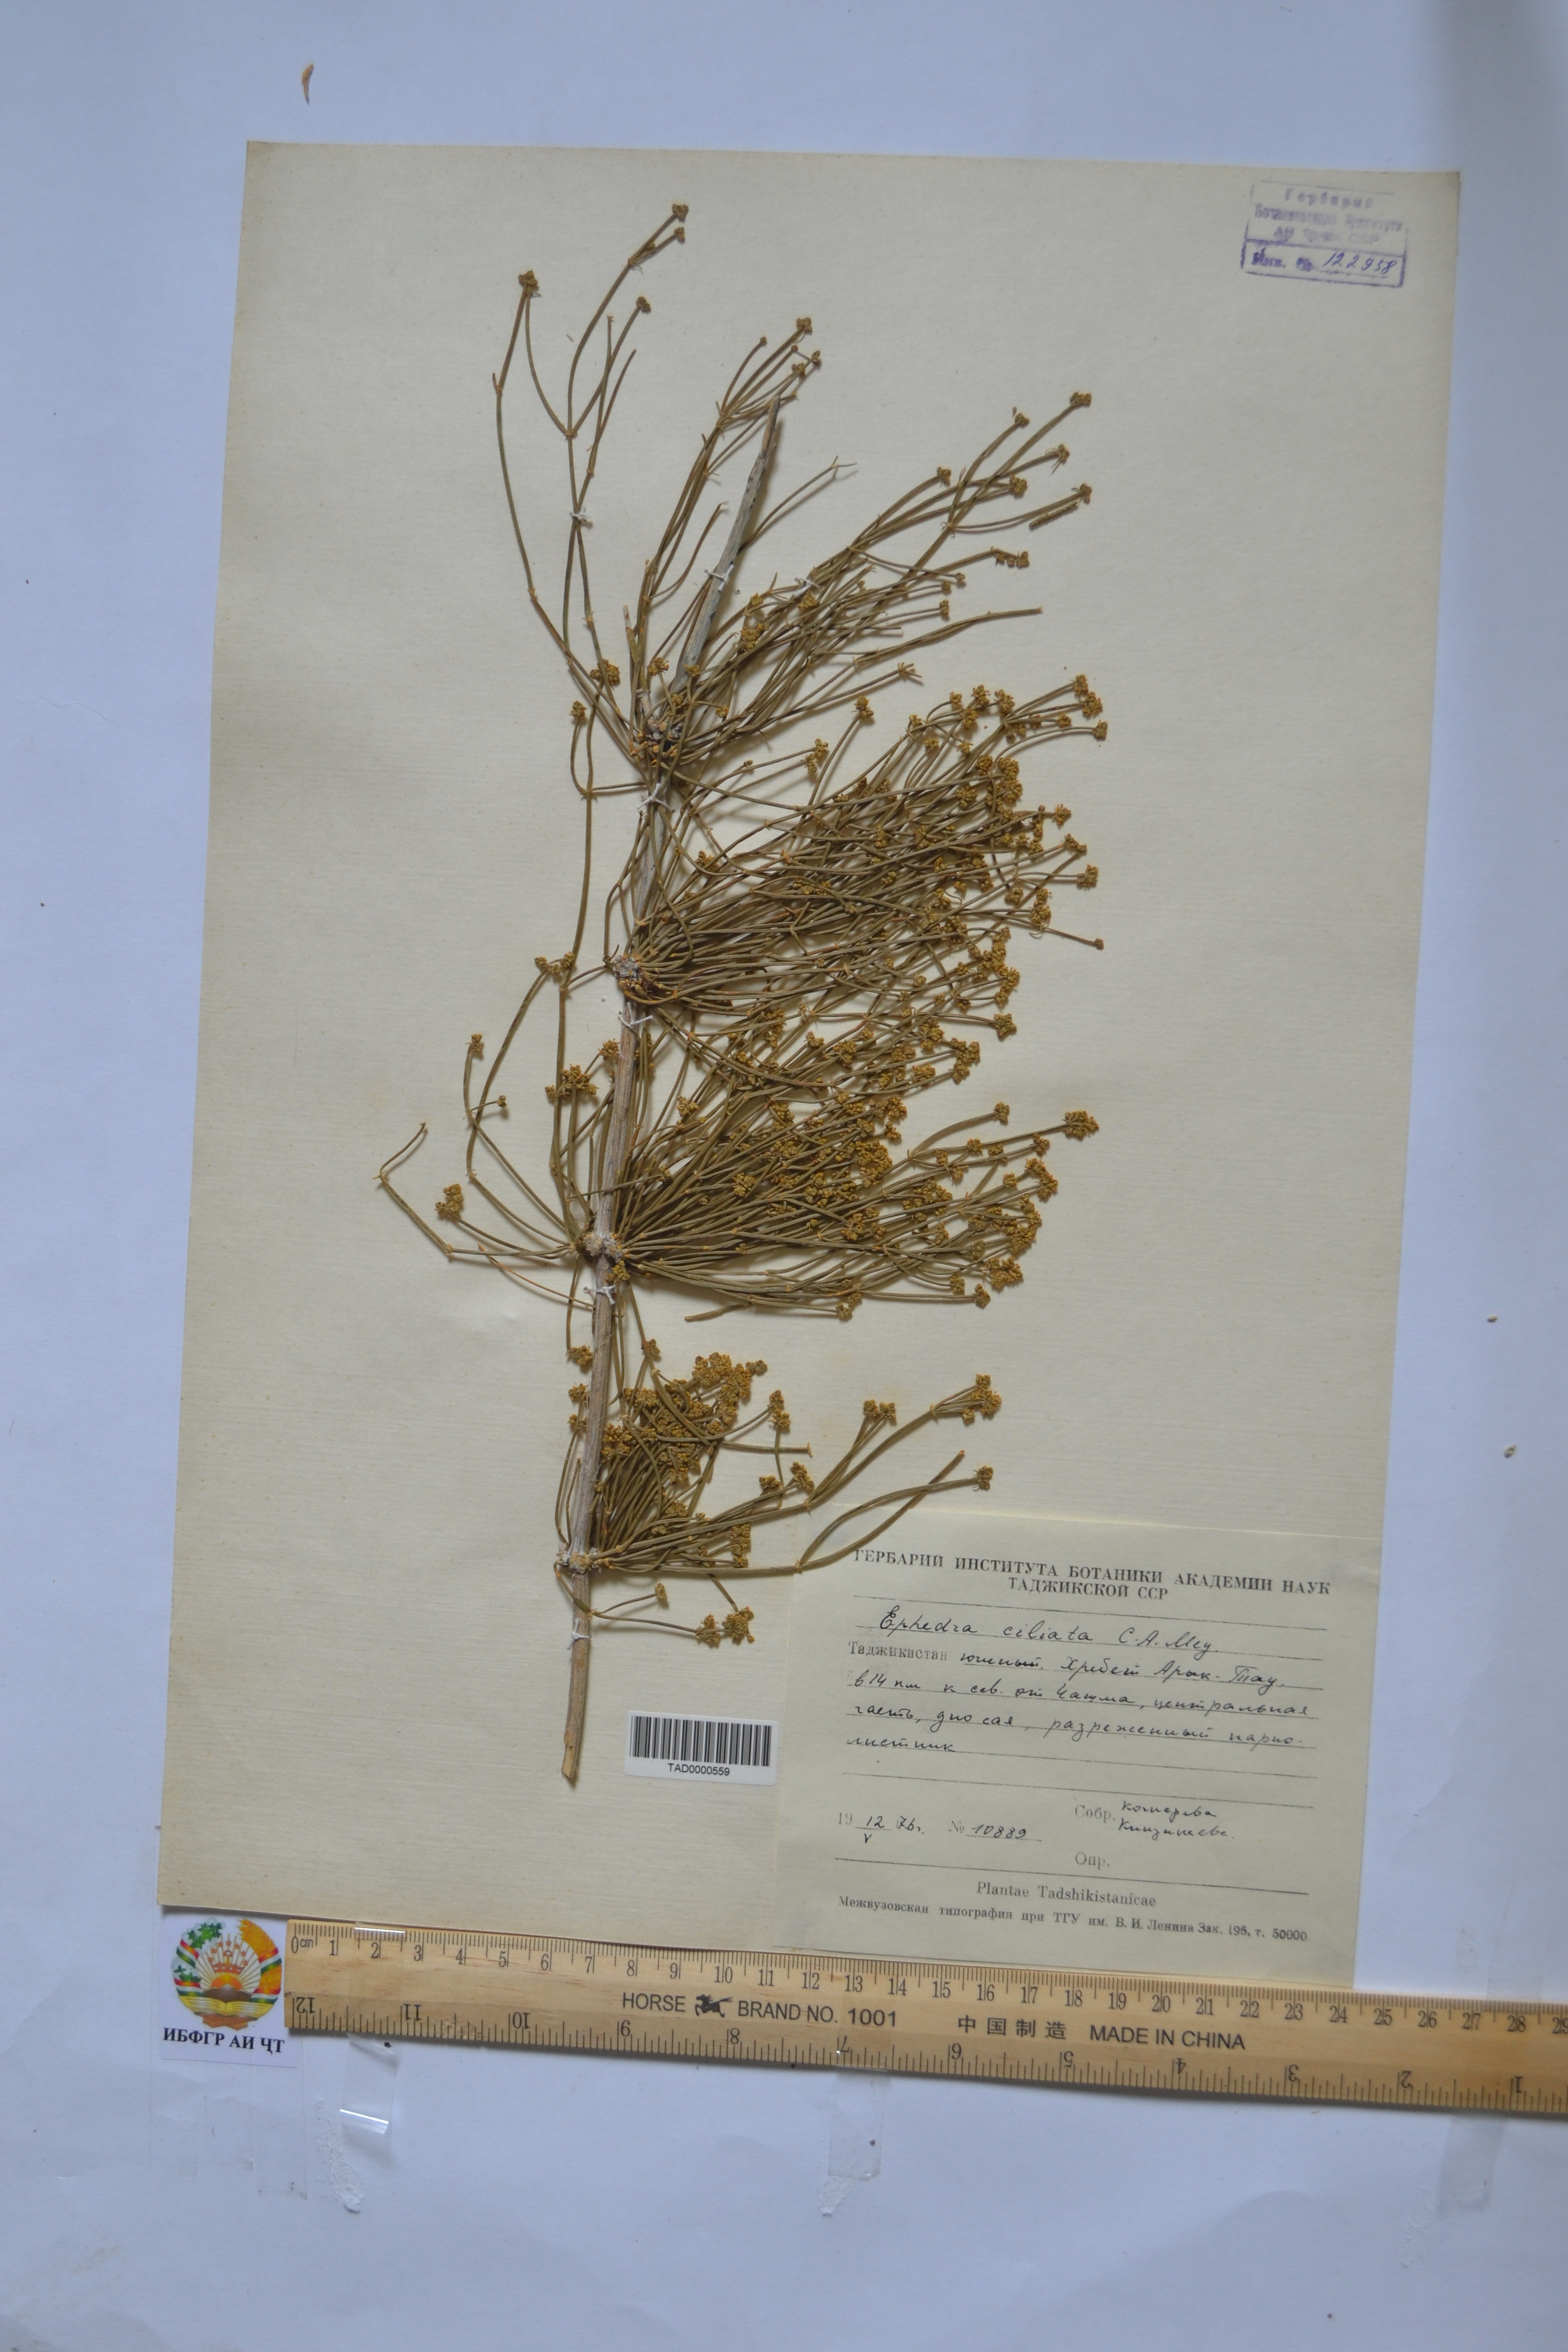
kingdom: Plantae
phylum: Tracheophyta
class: Gnetopsida
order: Ephedrales
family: Ephedraceae
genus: Ephedra
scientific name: Ephedra ciliata
